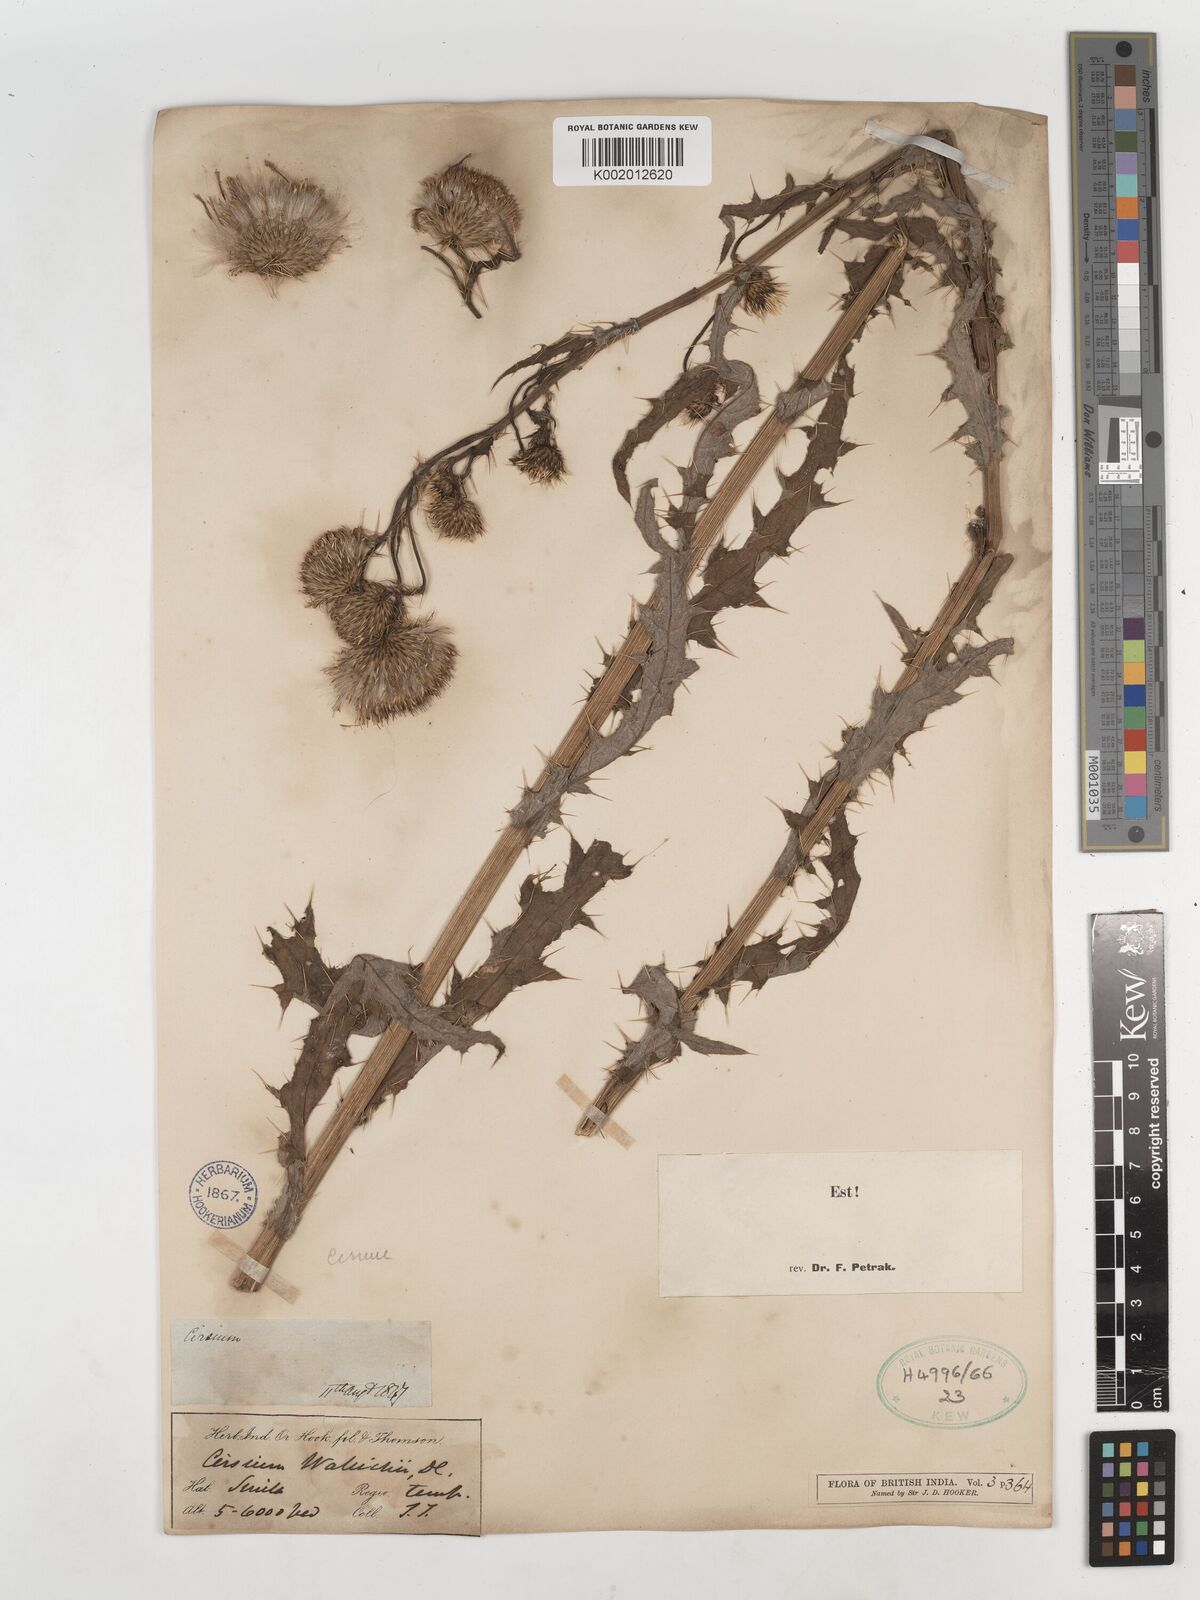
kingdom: Plantae
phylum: Tracheophyta
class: Magnoliopsida
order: Asterales
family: Asteraceae
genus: Cirsium
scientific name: Cirsium wallichii
